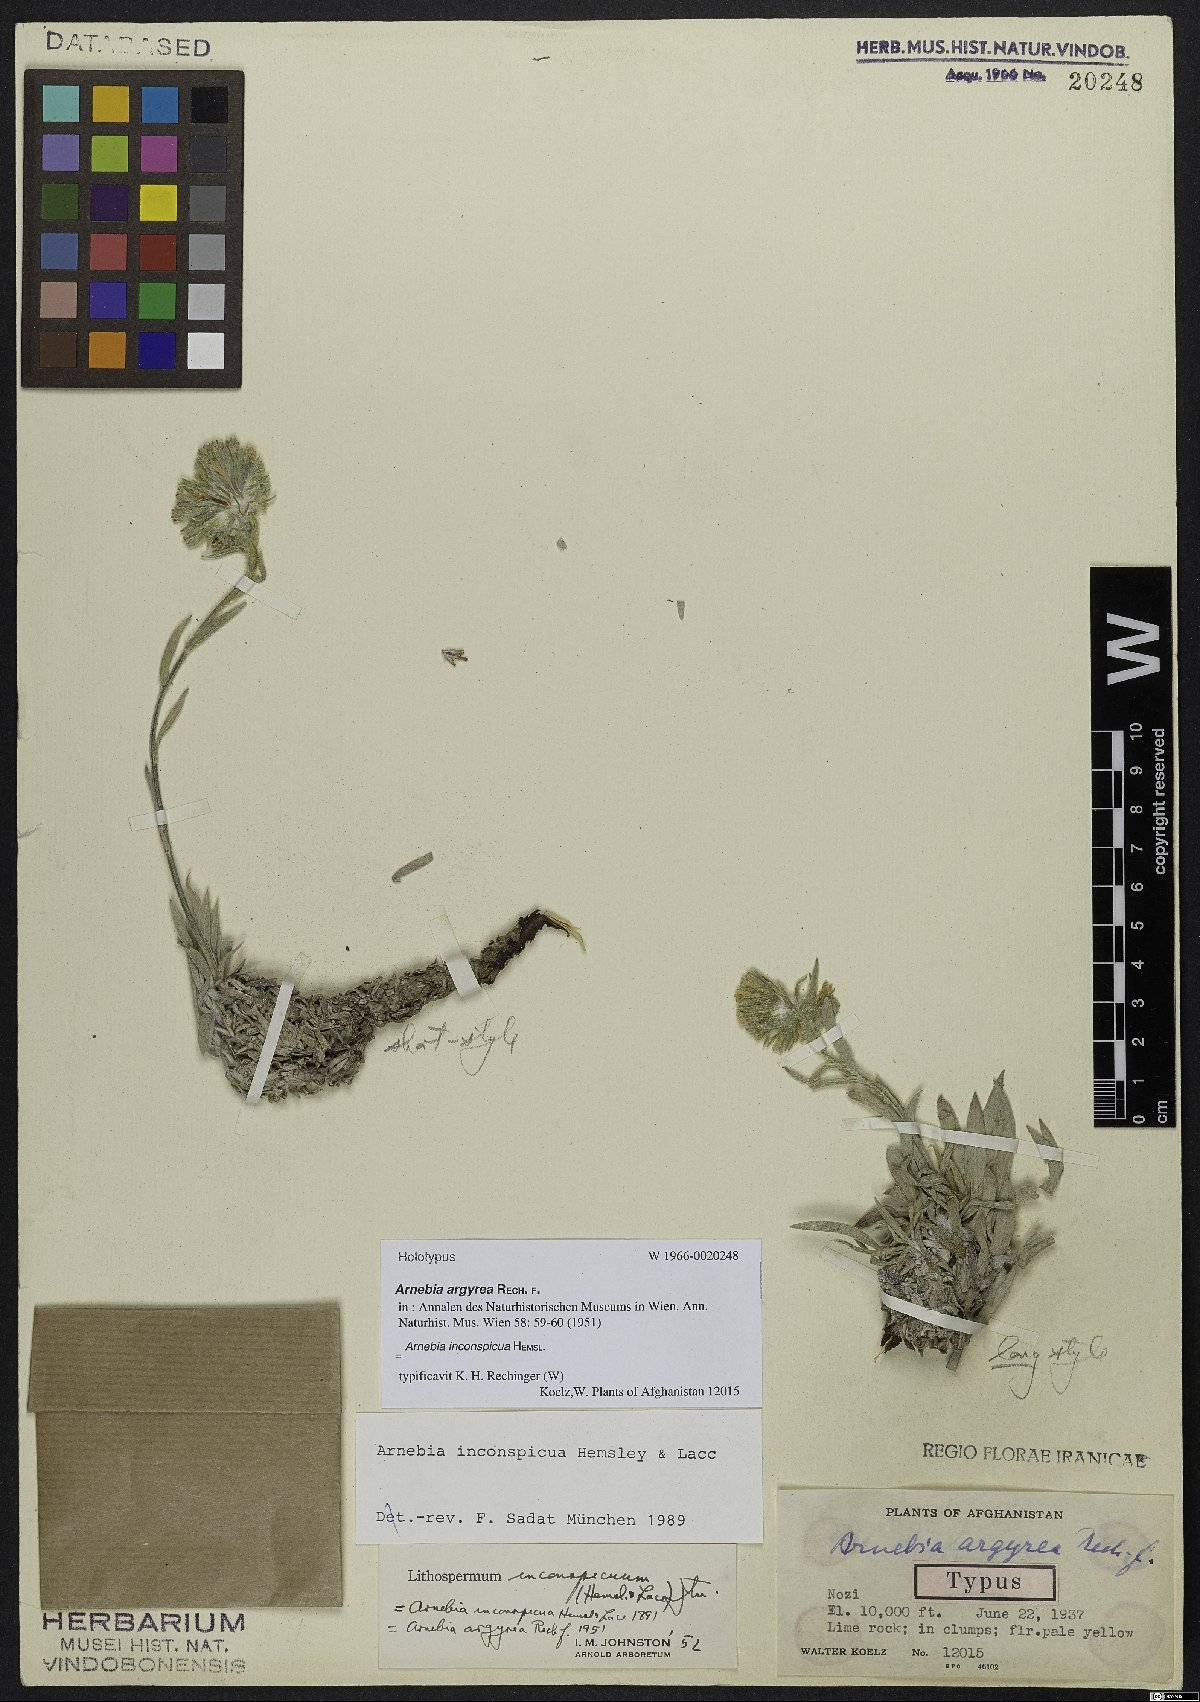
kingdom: Plantae
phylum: Tracheophyta
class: Magnoliopsida
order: Boraginales
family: Boraginaceae
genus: Arnebia
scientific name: Arnebia inconspicua
